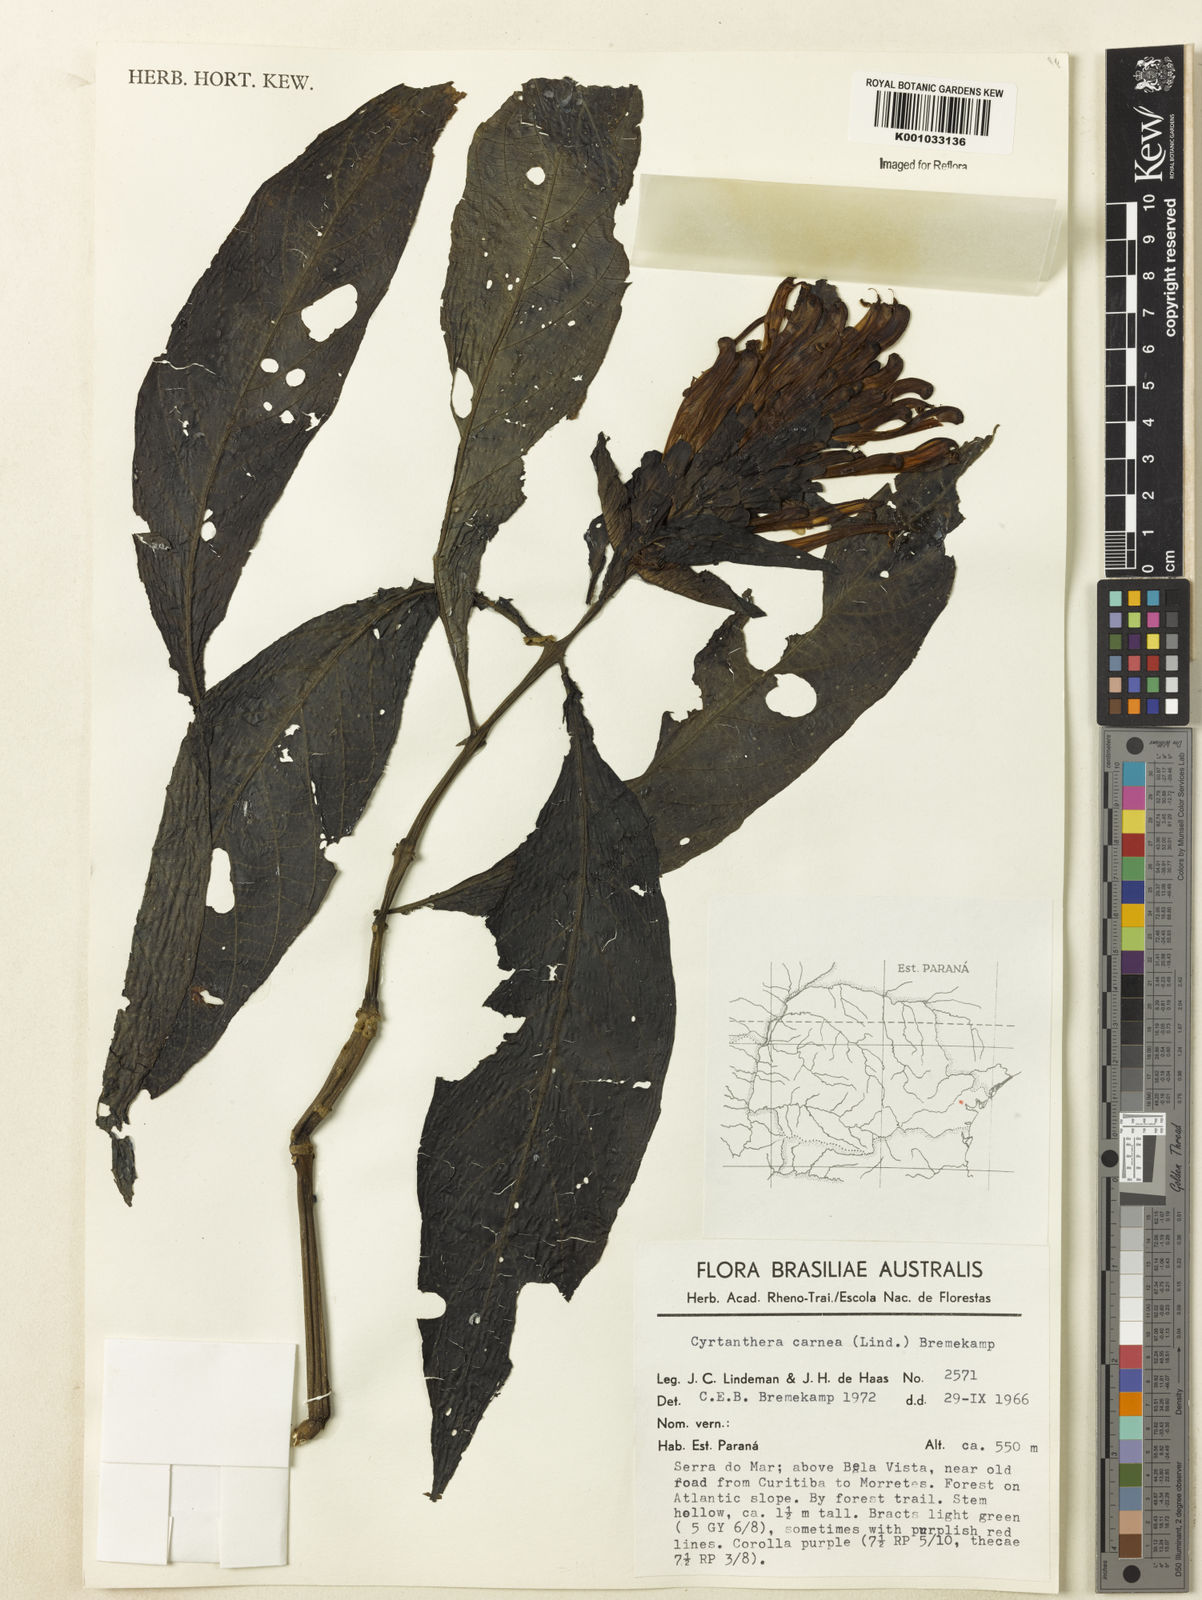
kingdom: Plantae
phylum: Tracheophyta
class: Magnoliopsida
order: Lamiales
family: Acanthaceae
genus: Justicia
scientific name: Justicia carnea
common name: Brazilian-plume
